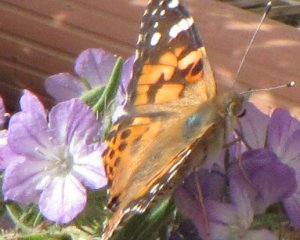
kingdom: Animalia
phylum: Arthropoda
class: Insecta
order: Lepidoptera
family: Nymphalidae
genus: Vanessa
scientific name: Vanessa cardui
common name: Painted Lady
